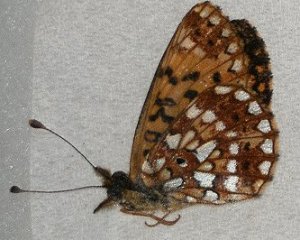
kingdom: Animalia
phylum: Arthropoda
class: Insecta
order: Lepidoptera
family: Nymphalidae
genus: Boloria
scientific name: Boloria selene
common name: Silver-bordered Fritillary
